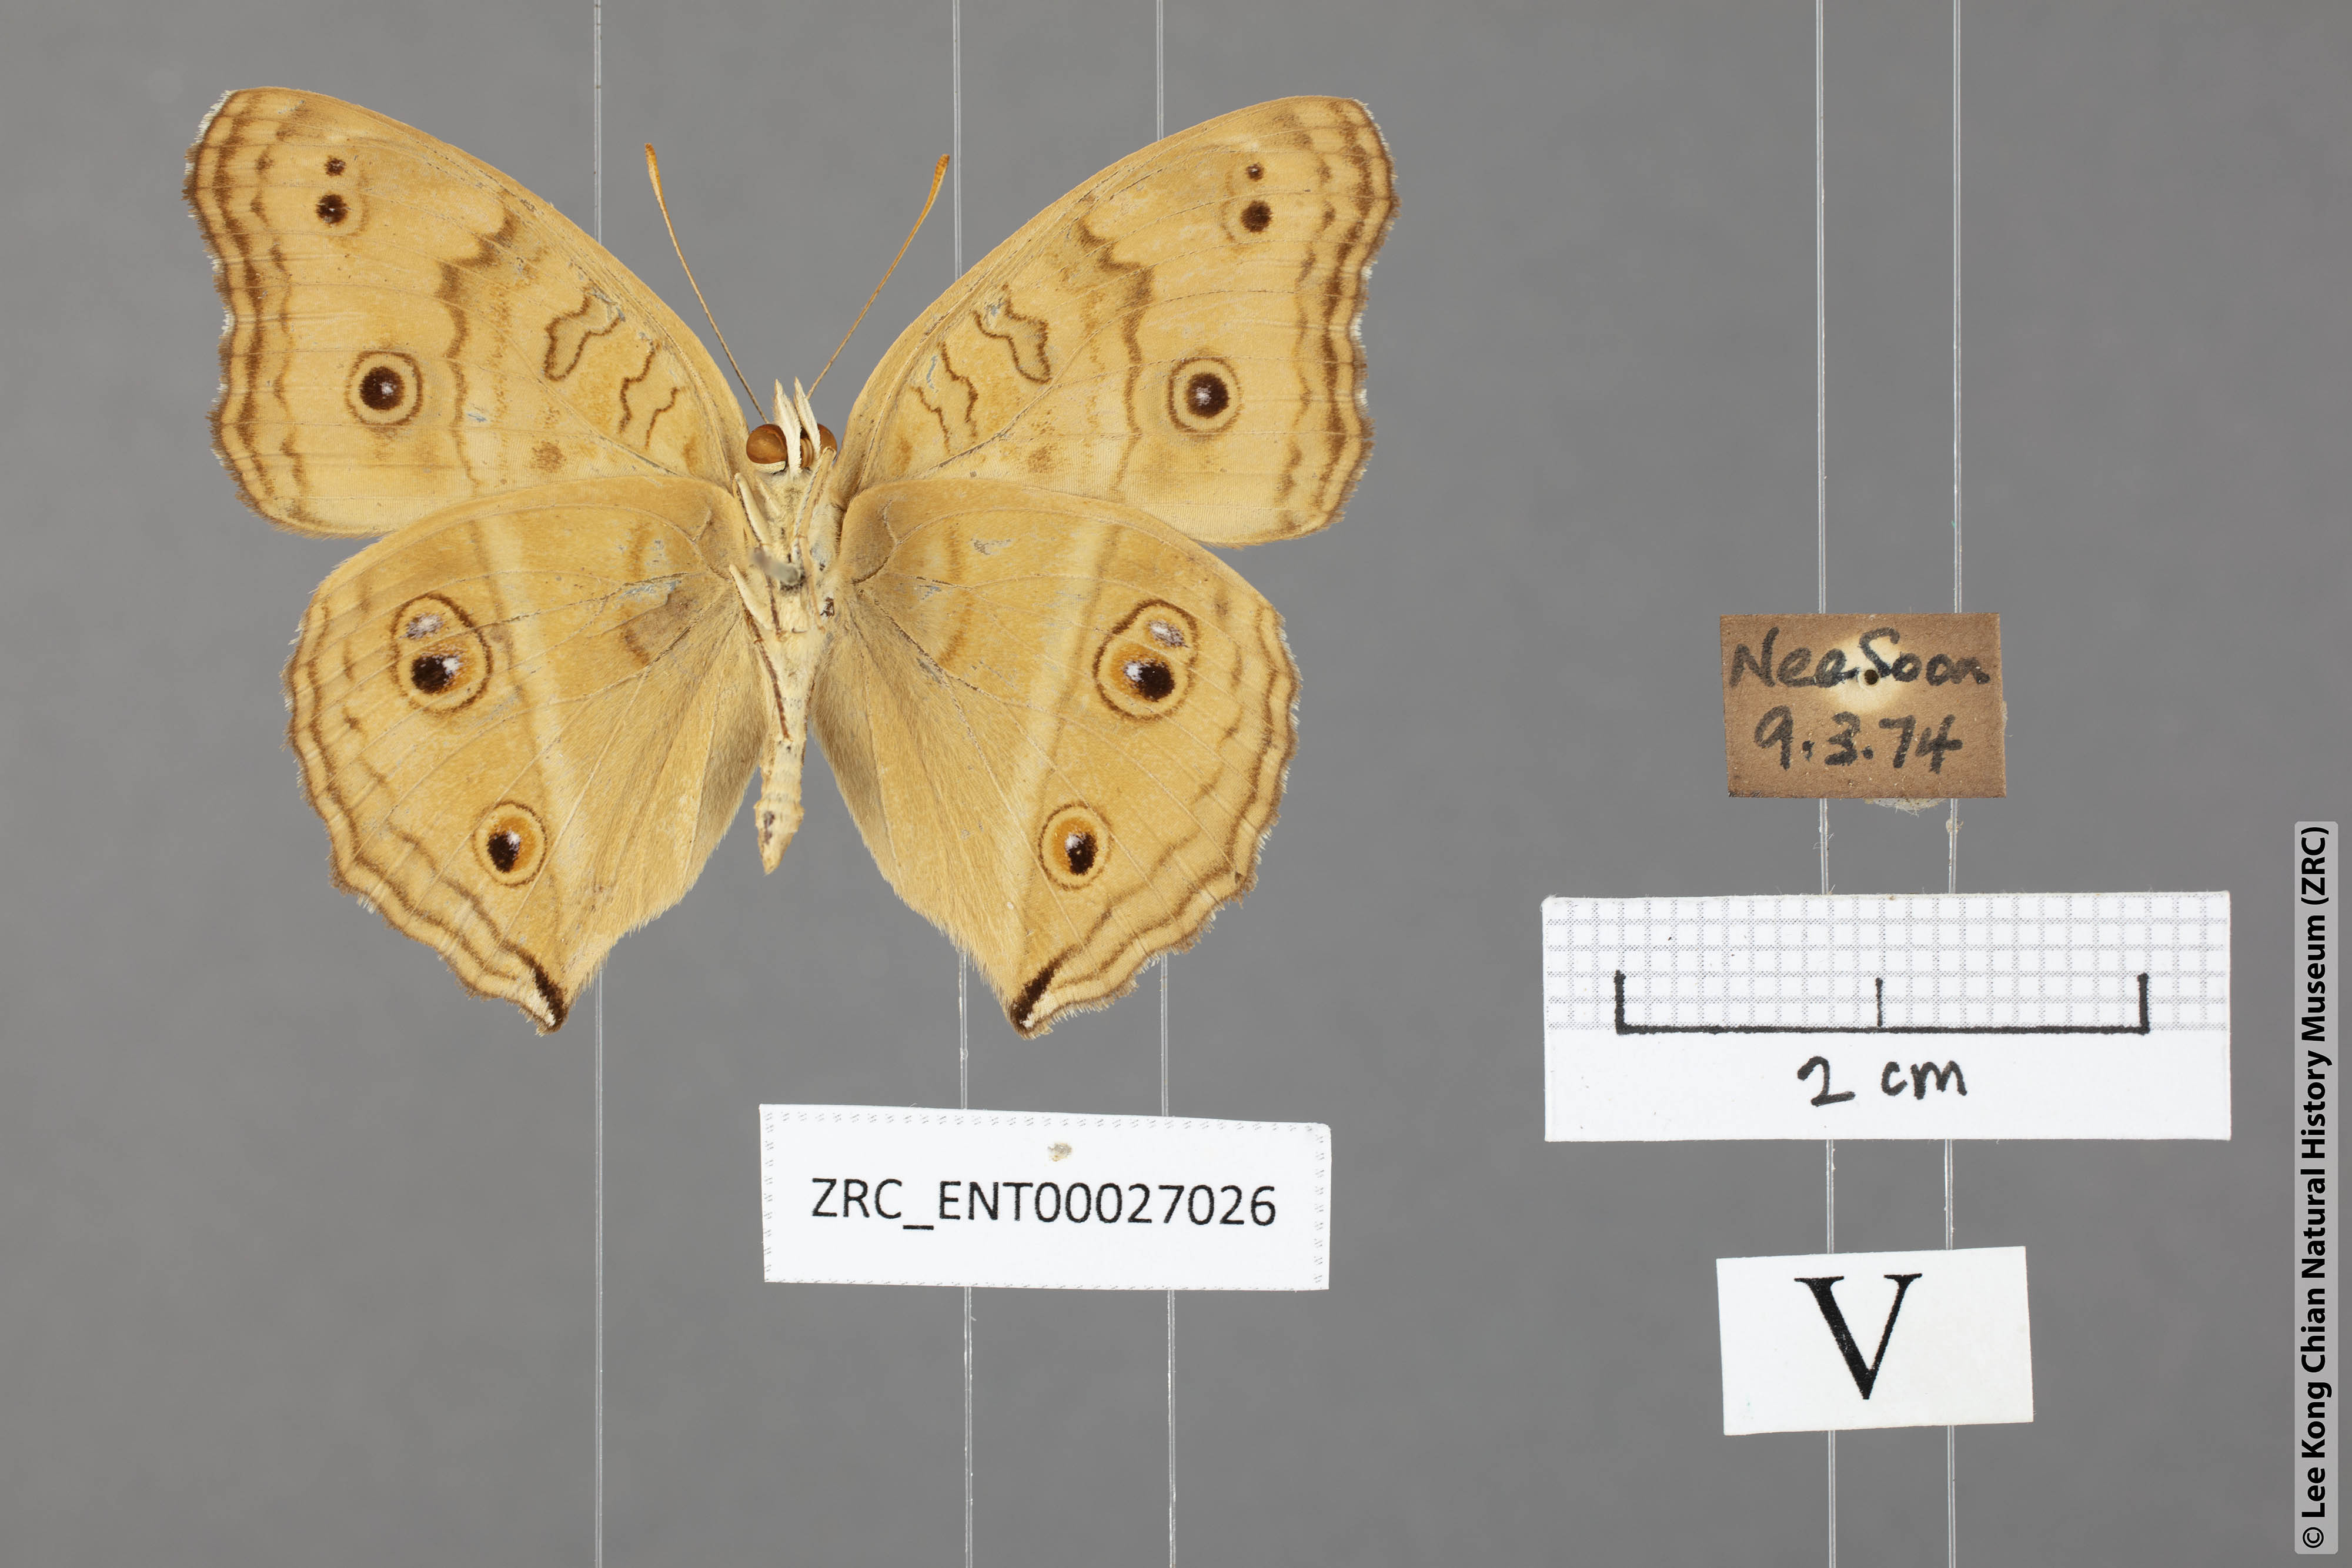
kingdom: Animalia
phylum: Arthropoda
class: Insecta
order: Lepidoptera
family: Nymphalidae
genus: Junonia
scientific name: Junonia almana
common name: Peacock pansy
